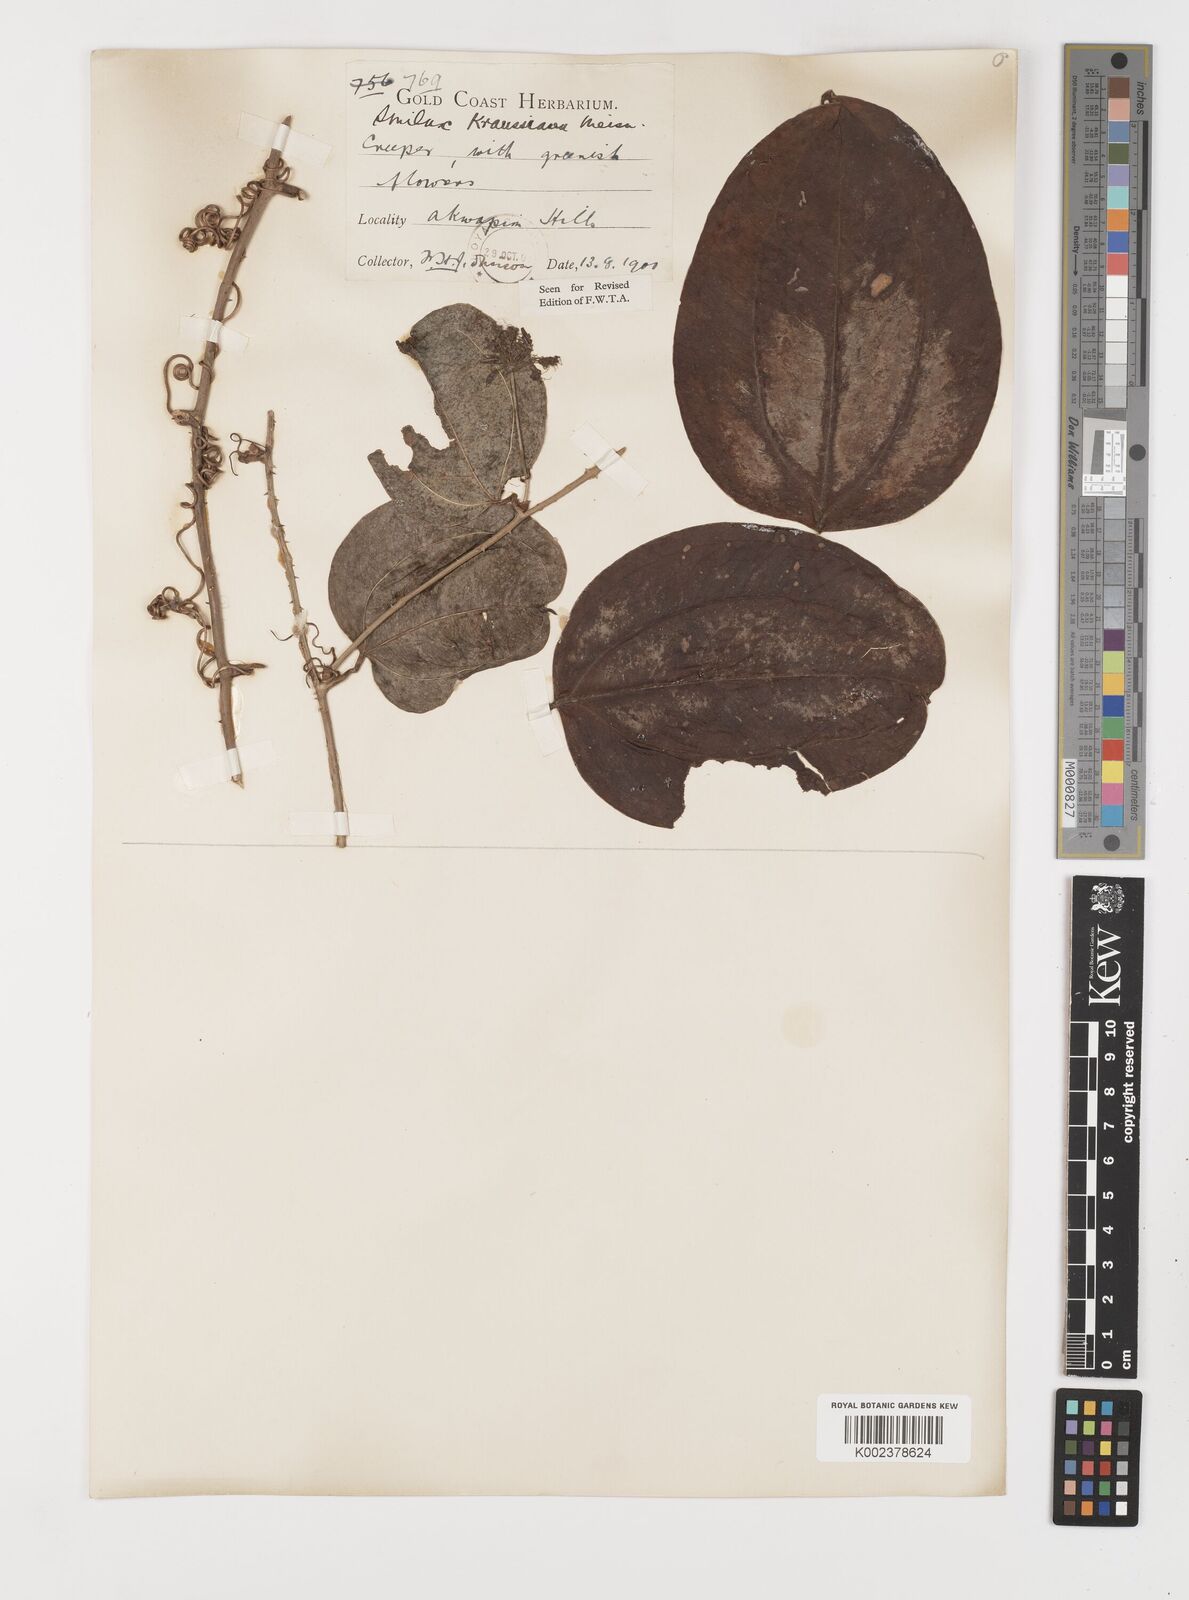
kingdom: Plantae
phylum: Tracheophyta
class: Liliopsida
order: Liliales
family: Smilacaceae
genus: Smilax
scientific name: Smilax anceps
